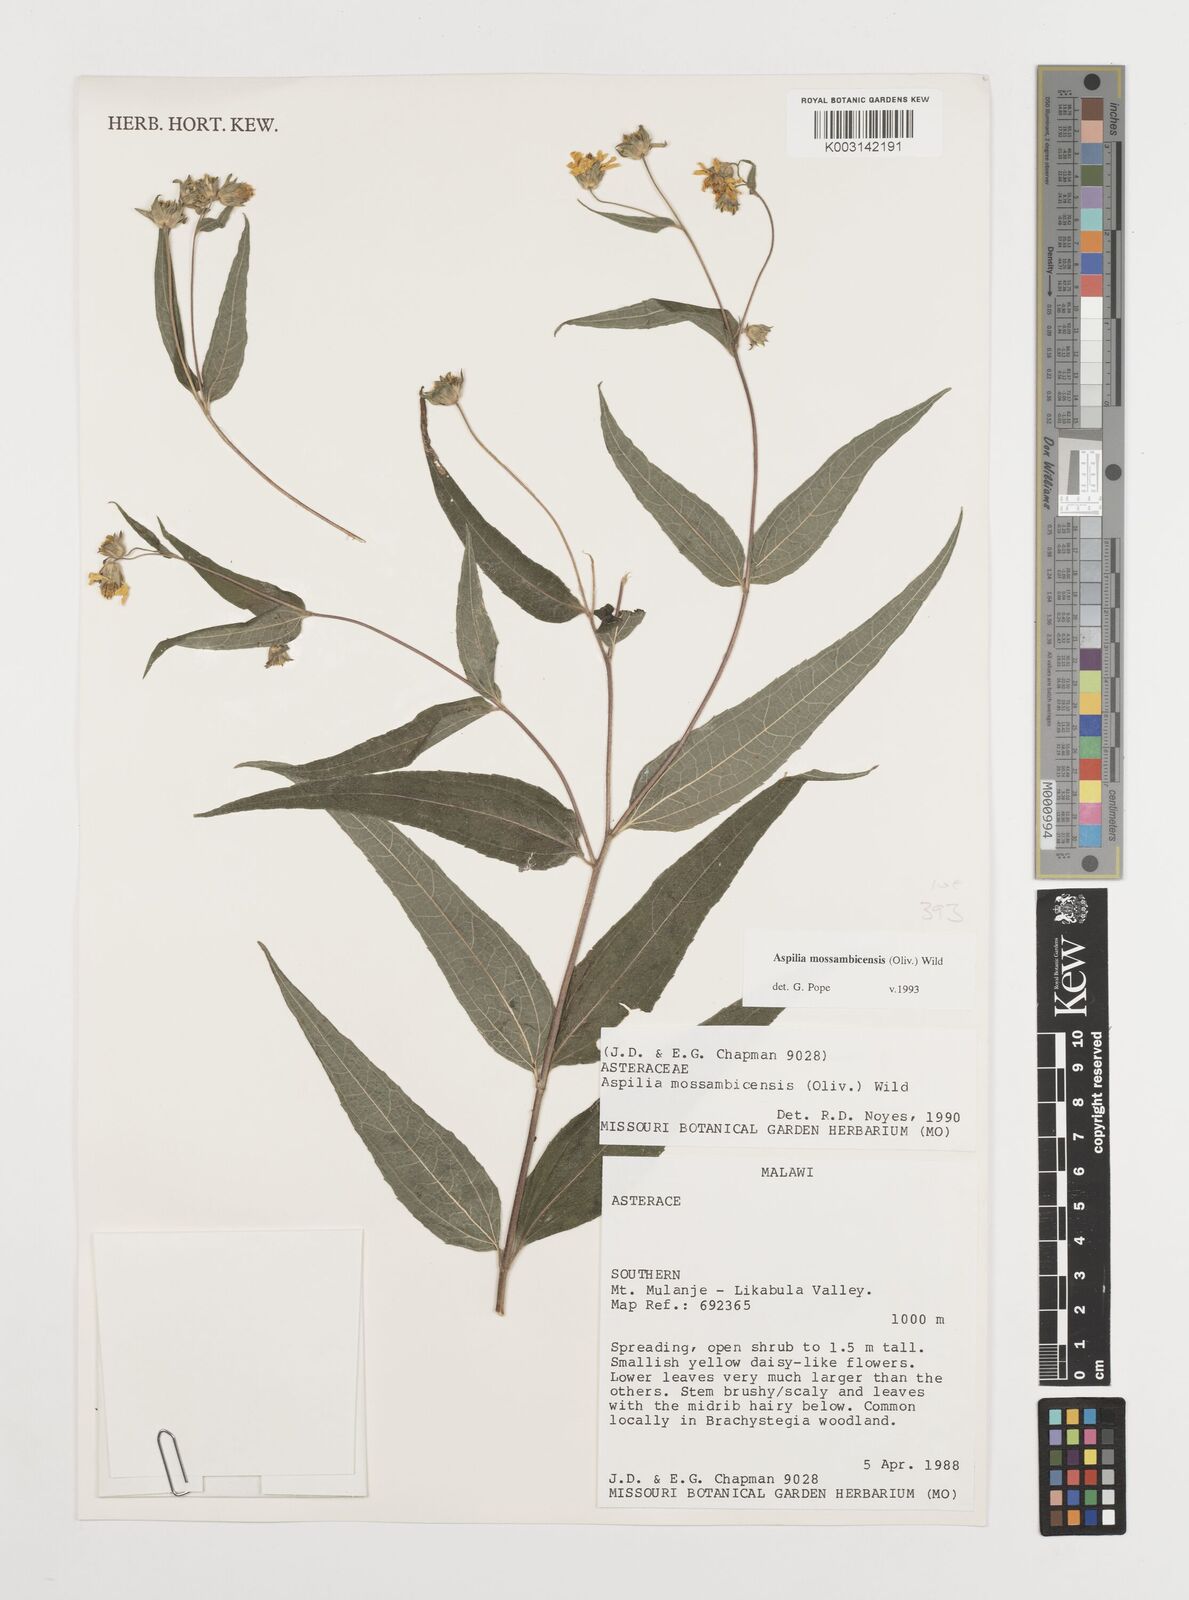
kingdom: Plantae
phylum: Tracheophyta
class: Magnoliopsida
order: Asterales
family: Asteraceae
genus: Aspilia
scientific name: Aspilia mossambicensis
